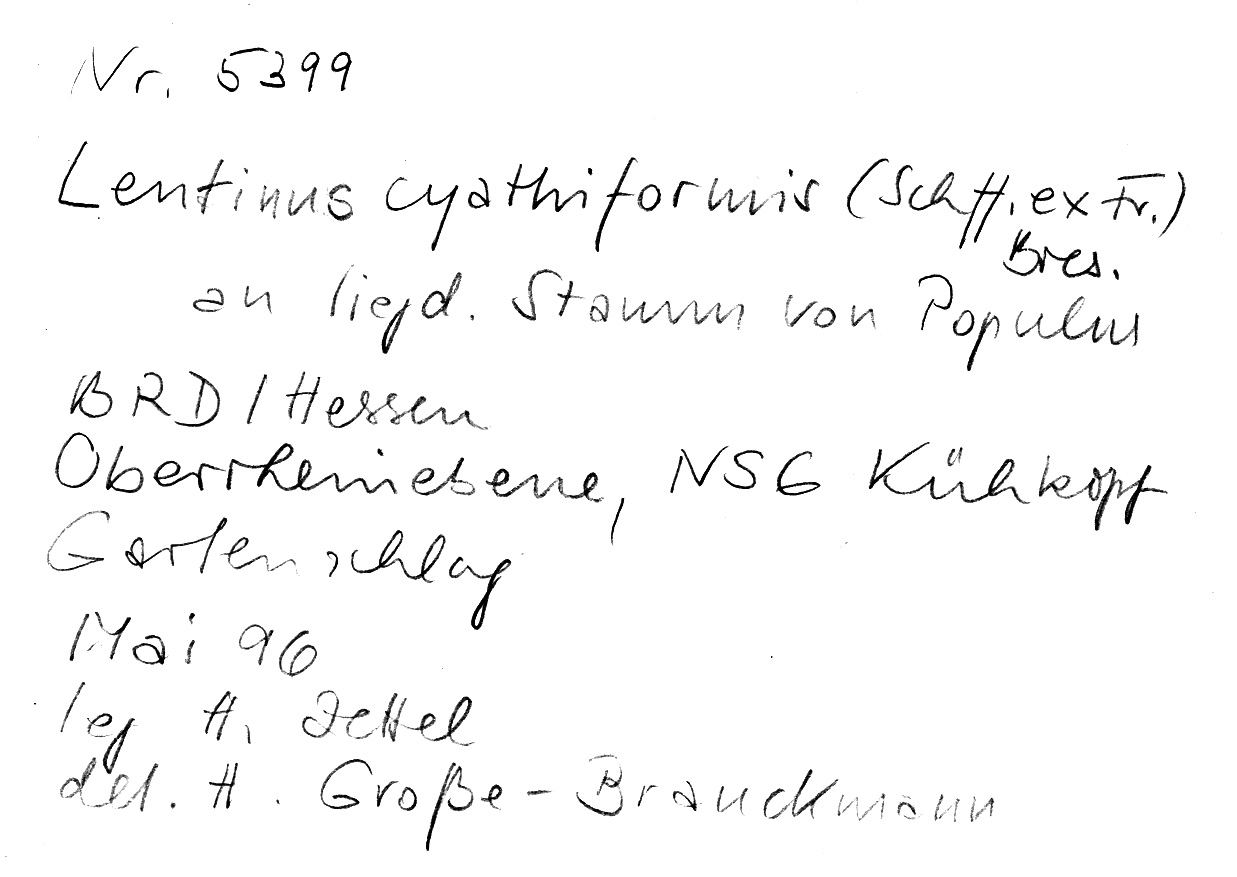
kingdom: Plantae
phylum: Tracheophyta
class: Magnoliopsida
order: Malpighiales
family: Salicaceae
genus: Populus
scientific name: Populus
